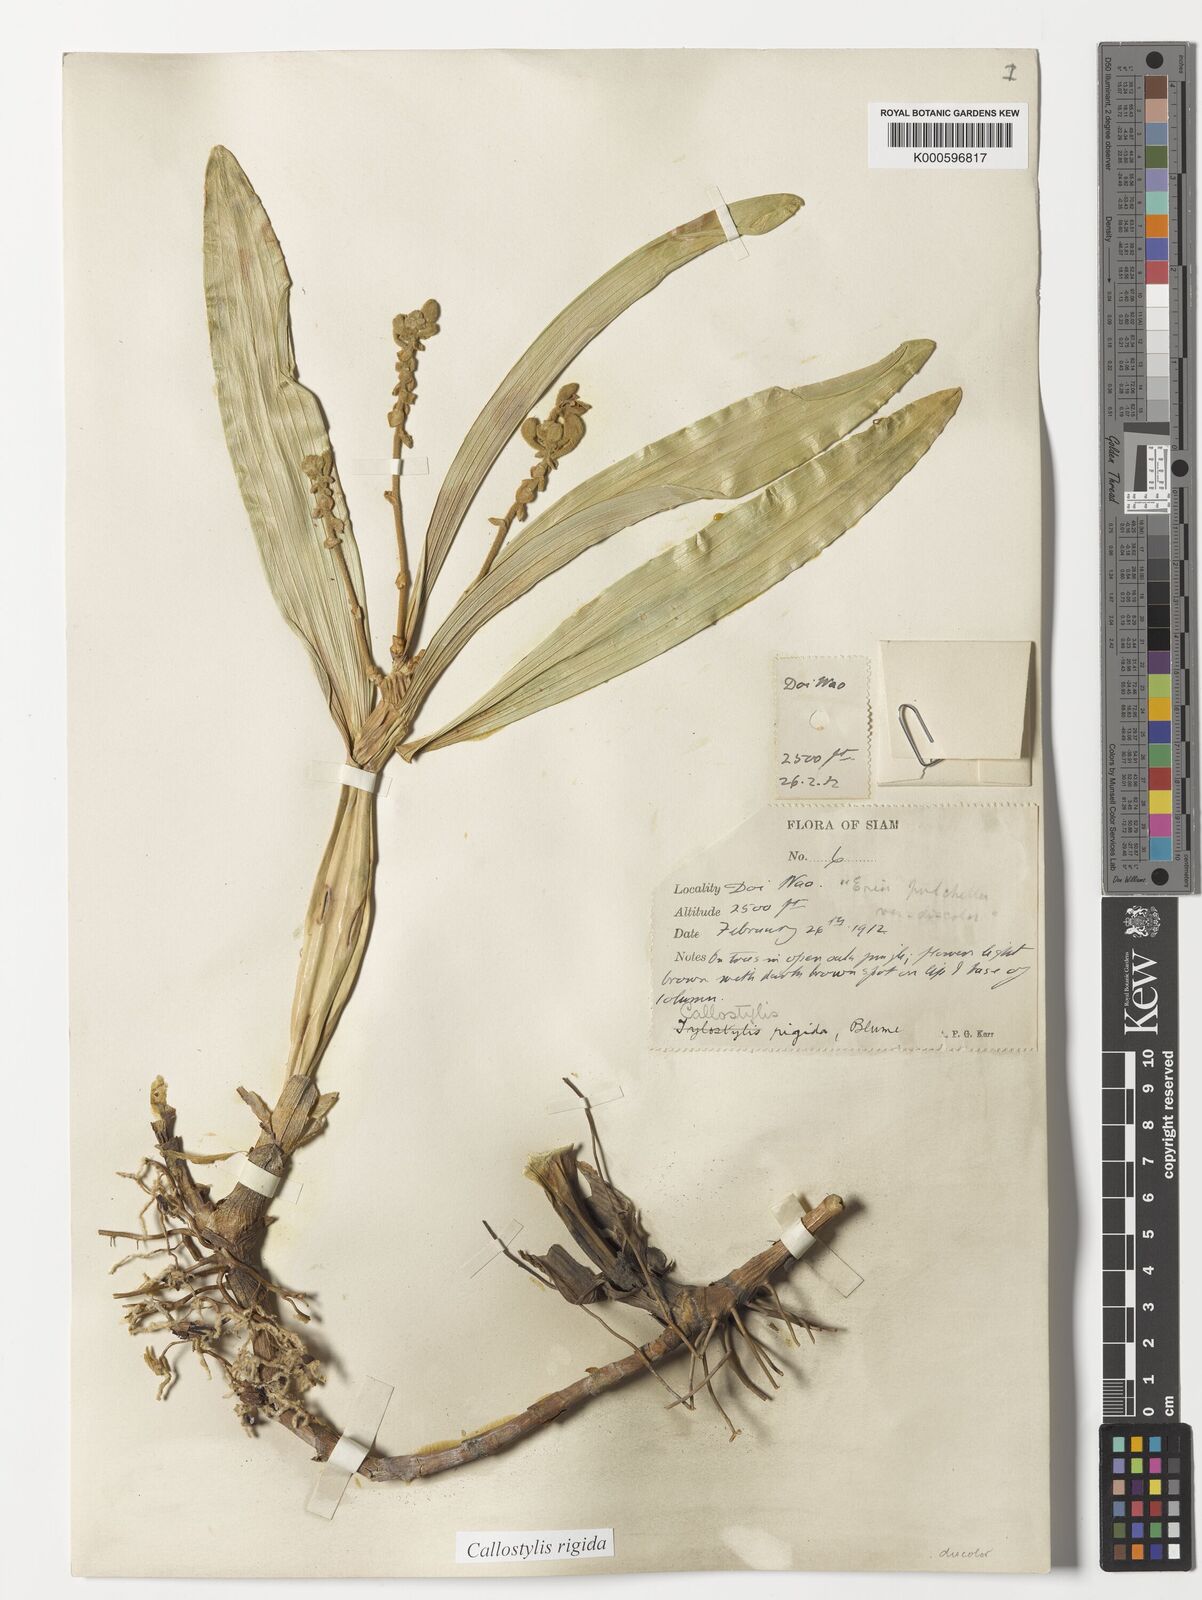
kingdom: Plantae
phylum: Tracheophyta
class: Liliopsida
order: Asparagales
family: Orchidaceae
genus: Callostylis
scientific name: Callostylis rigida
